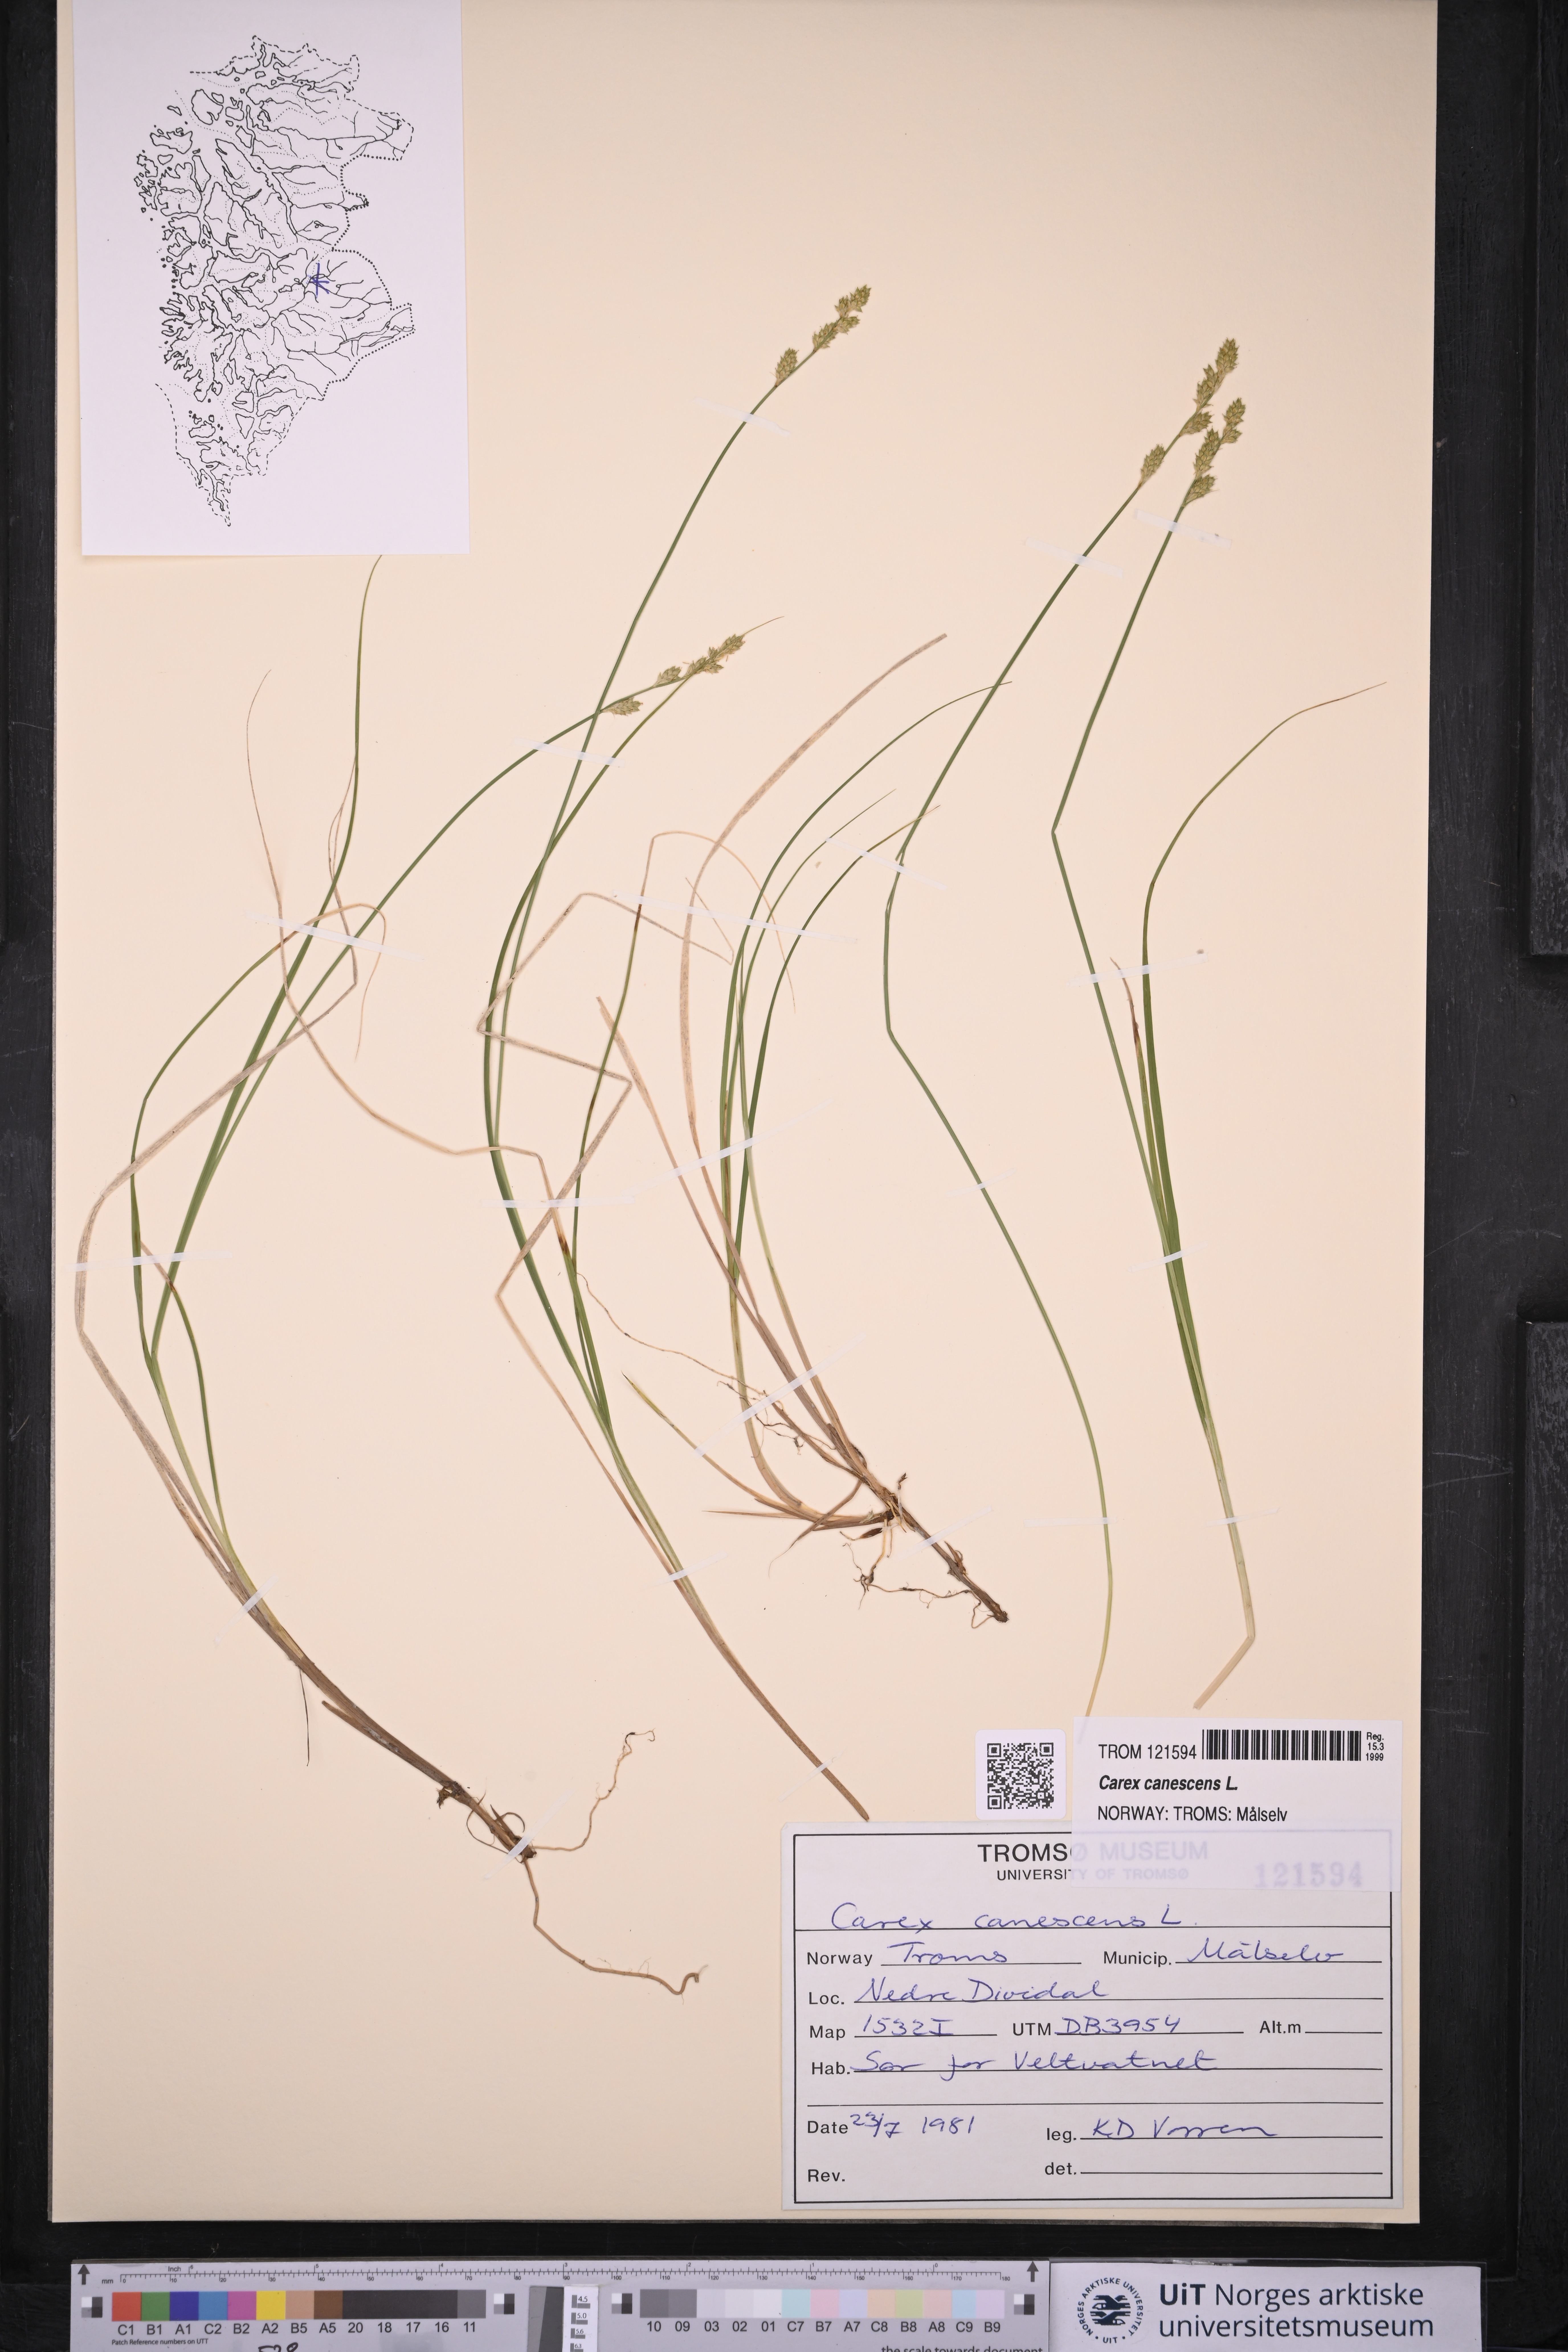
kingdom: Plantae
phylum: Tracheophyta
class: Liliopsida
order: Poales
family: Cyperaceae
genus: Carex
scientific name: Carex canescens
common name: White sedge
